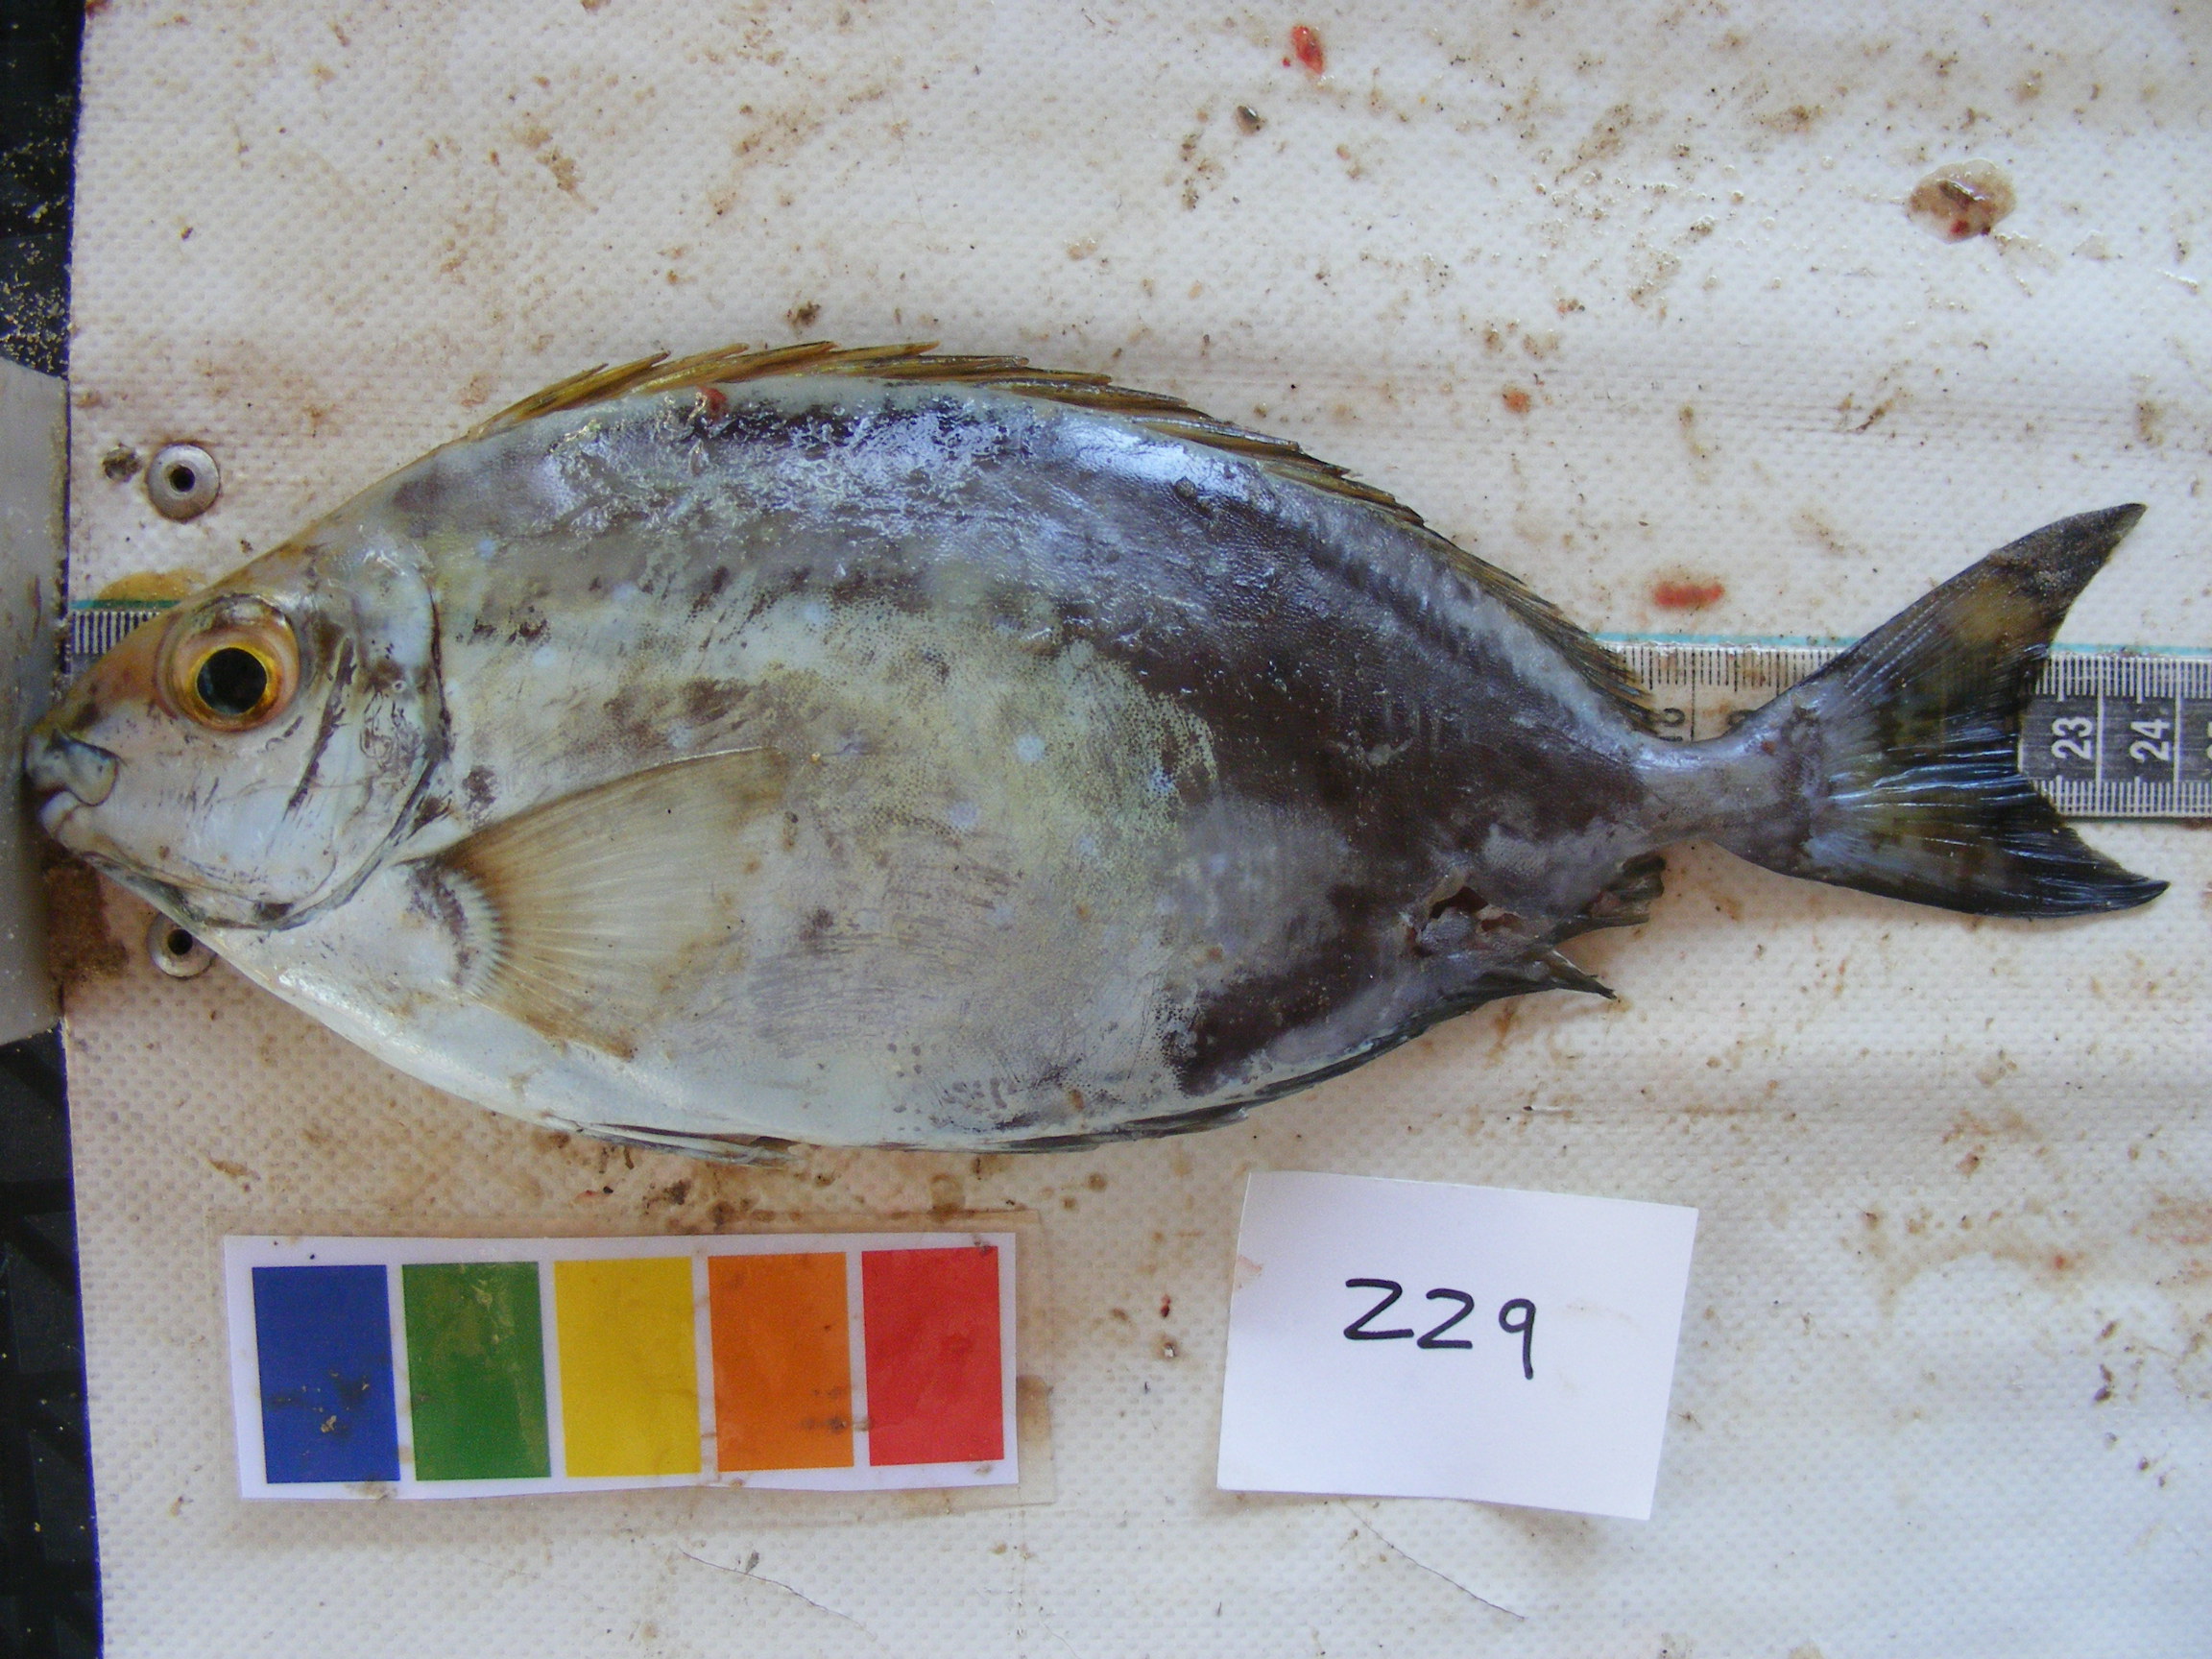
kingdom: Animalia
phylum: Chordata
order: Perciformes
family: Siganidae
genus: Siganus
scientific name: Siganus sutor
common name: Shoemaker spinefoot
